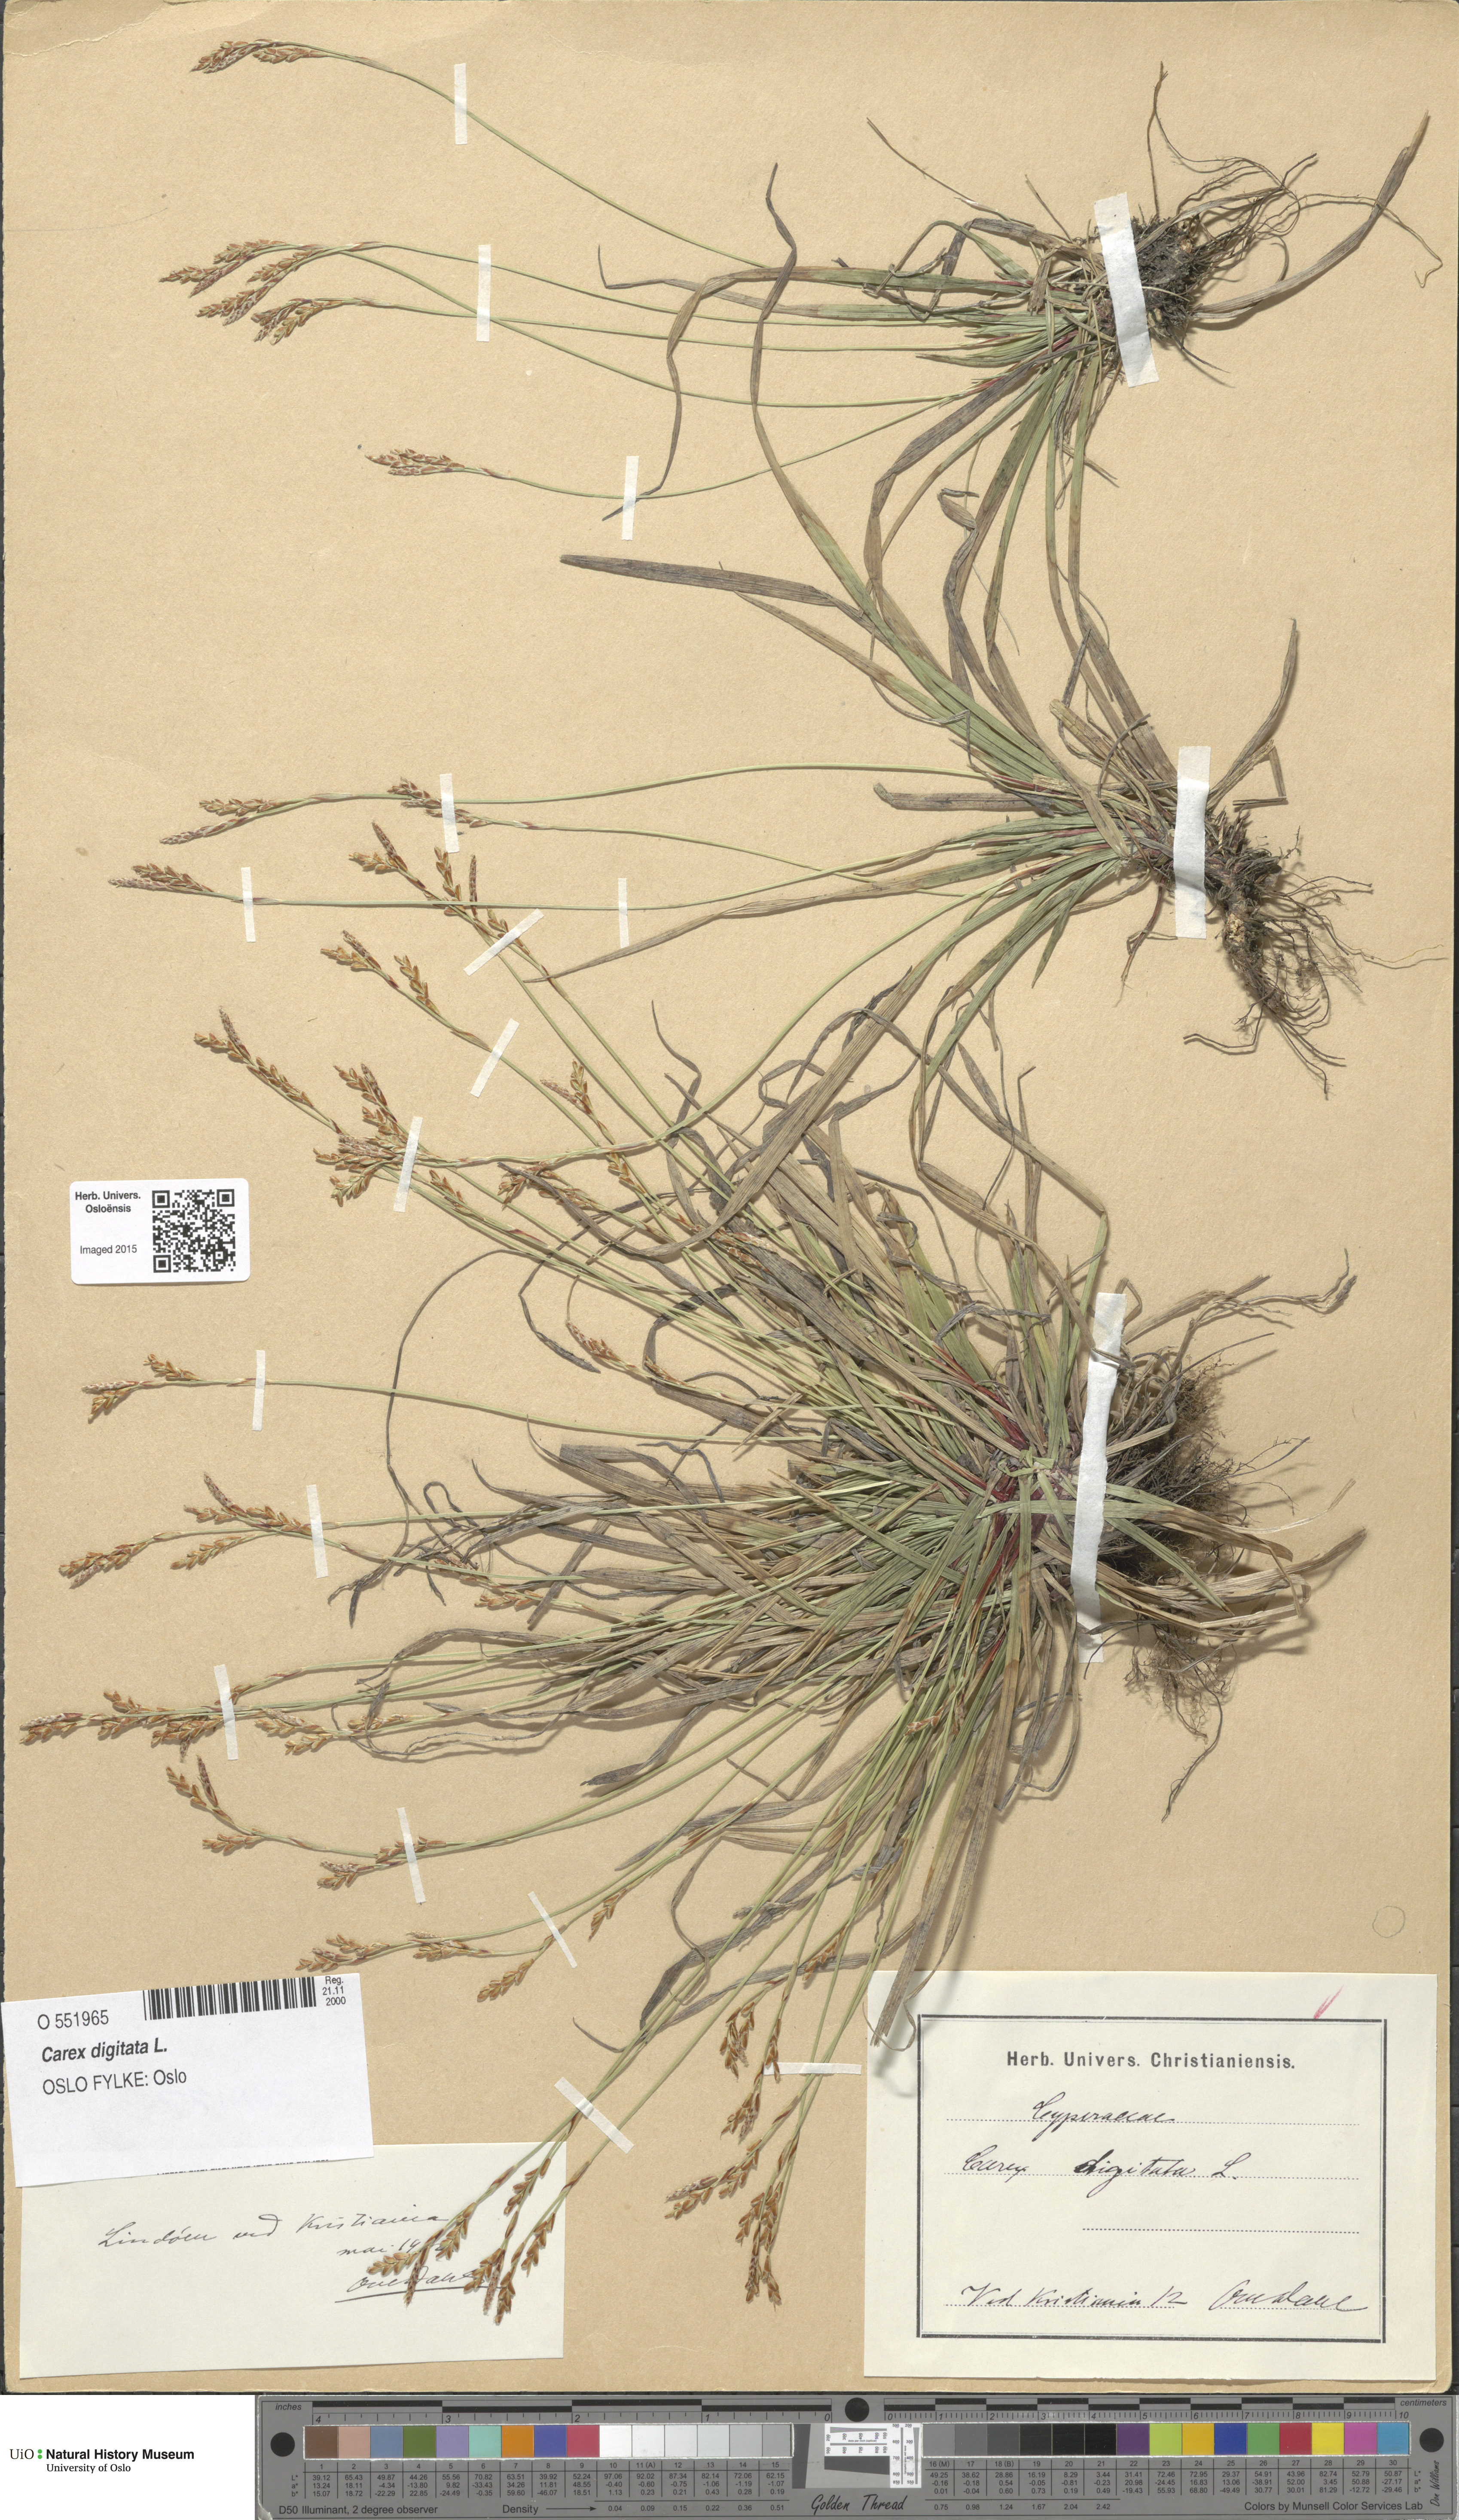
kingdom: Plantae
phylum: Tracheophyta
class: Liliopsida
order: Poales
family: Cyperaceae
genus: Carex
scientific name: Carex digitata
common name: Fingered sedge
